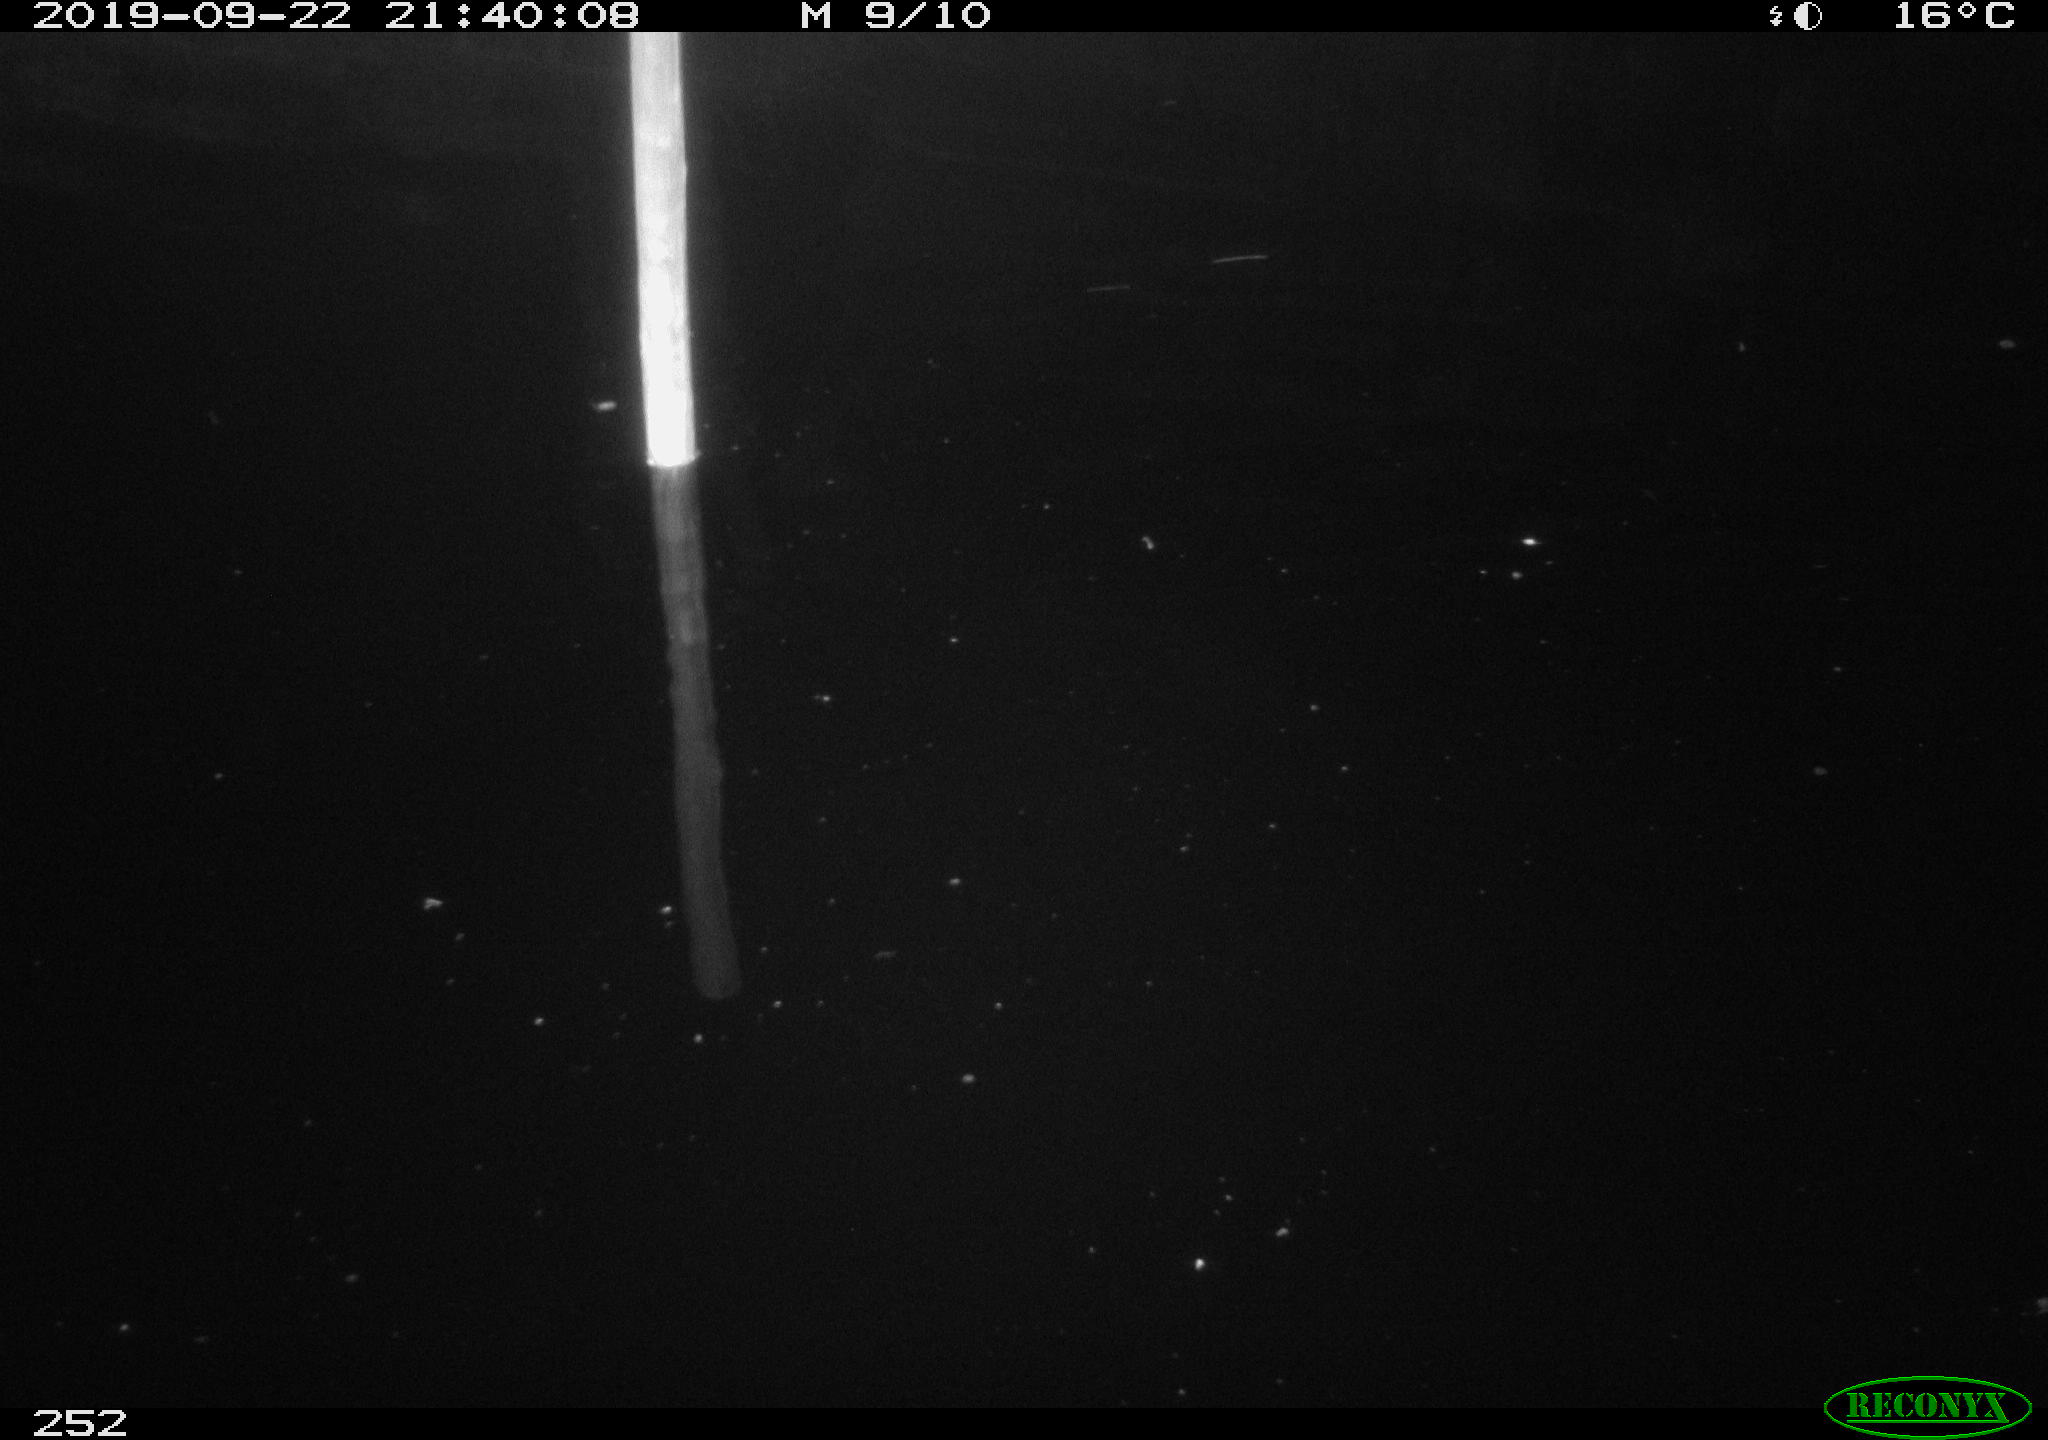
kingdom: Animalia
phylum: Chordata
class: Aves
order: Anseriformes
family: Anatidae
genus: Anas
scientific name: Anas platyrhynchos
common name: Mallard
